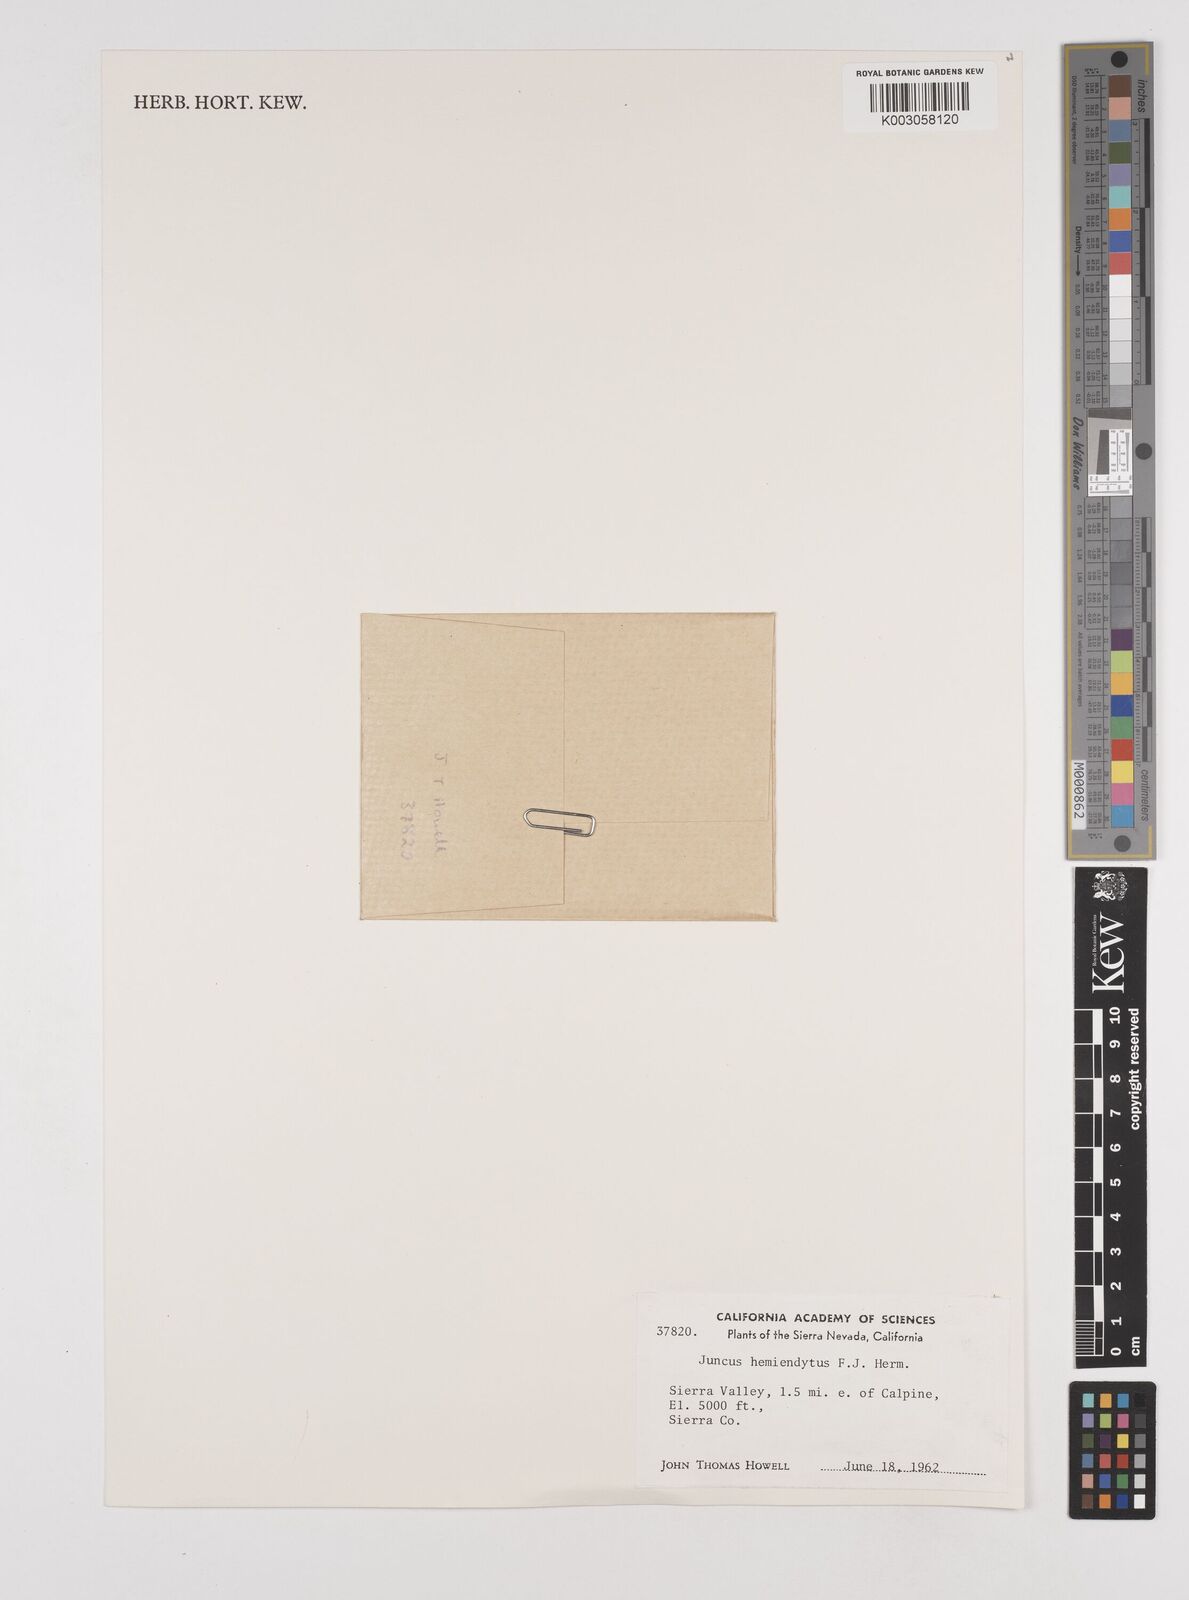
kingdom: Plantae
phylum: Tracheophyta
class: Liliopsida
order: Poales
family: Juncaceae
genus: Juncus
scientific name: Juncus hemiendytus
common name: Hermann's dwarf rush
